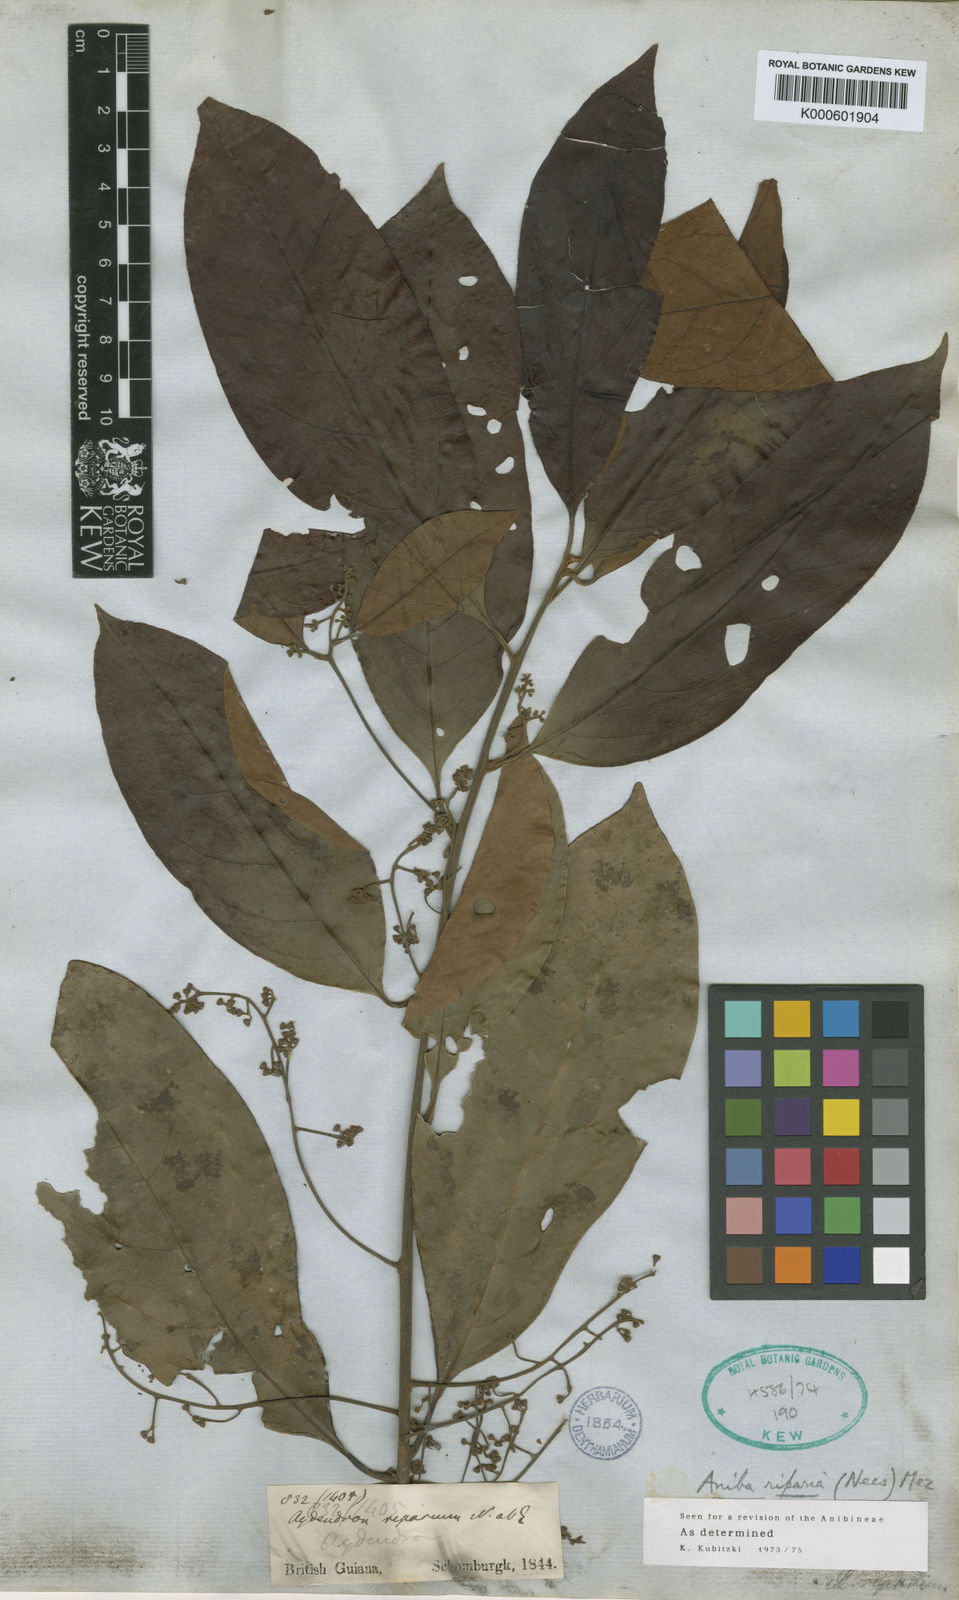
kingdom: Plantae
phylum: Tracheophyta
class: Magnoliopsida
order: Laurales
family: Lauraceae
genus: Aniba
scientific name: Aniba riparia
